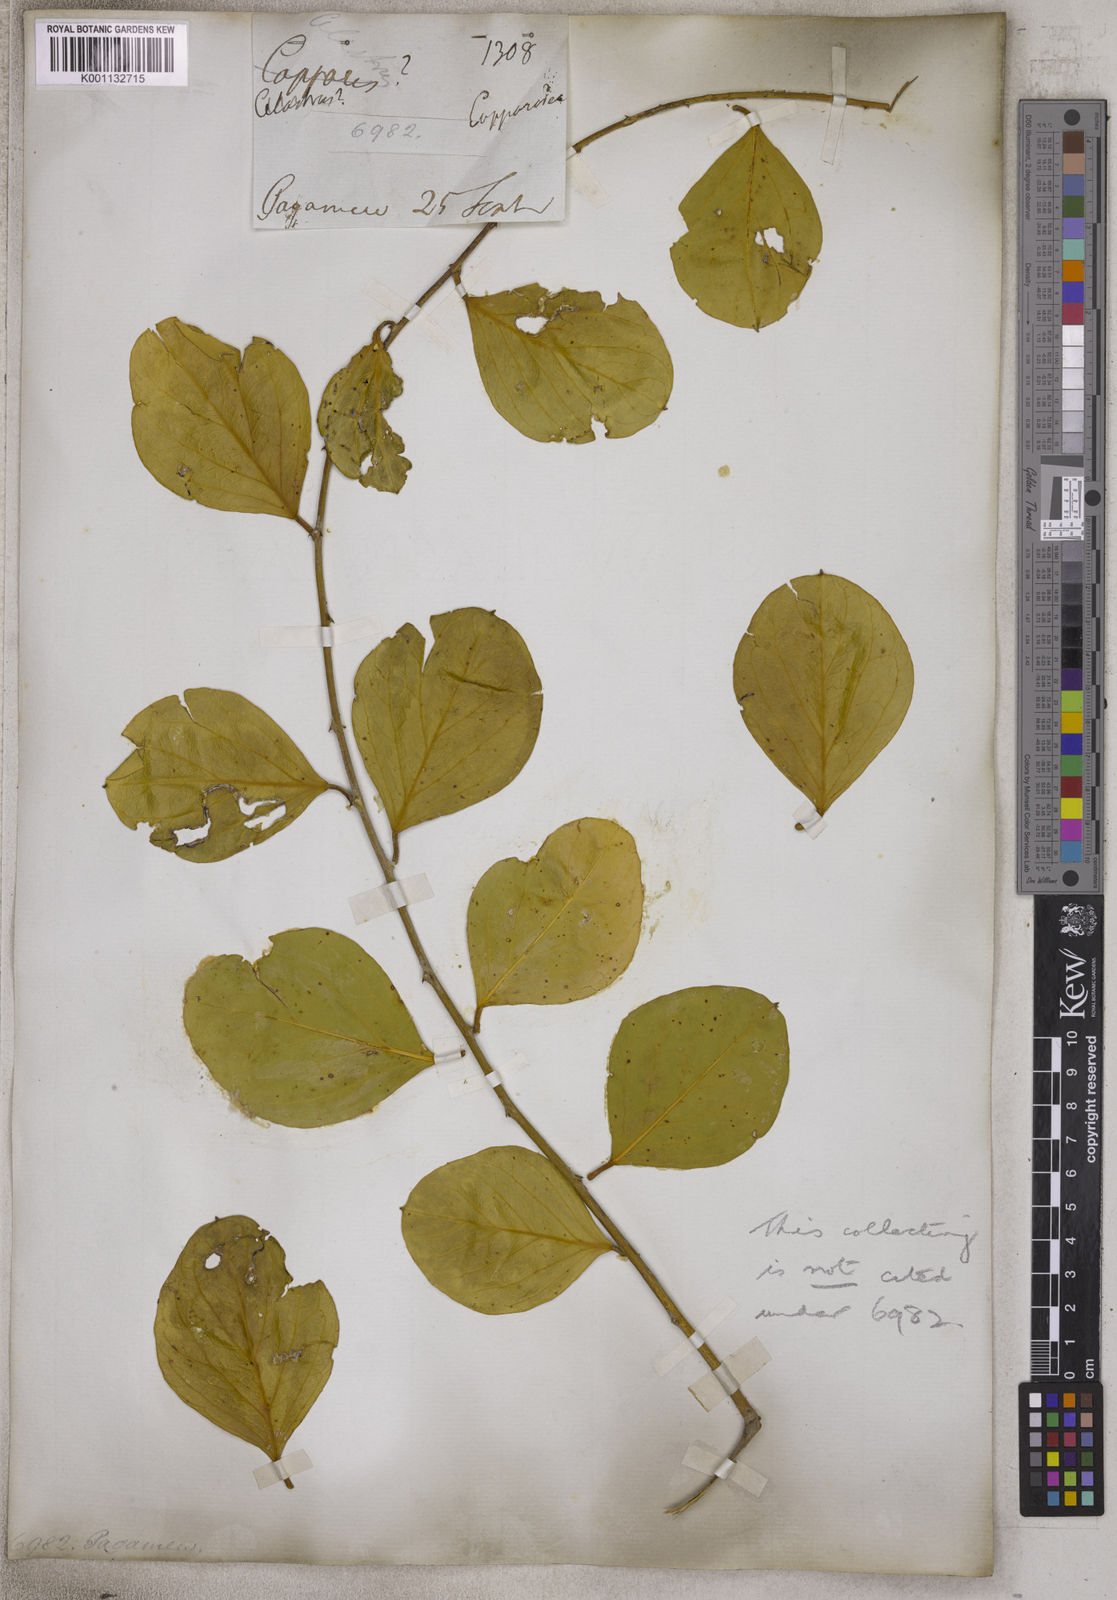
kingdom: Plantae
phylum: Tracheophyta
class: Magnoliopsida
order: Brassicales
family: Capparaceae
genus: Capparis
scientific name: Capparis
